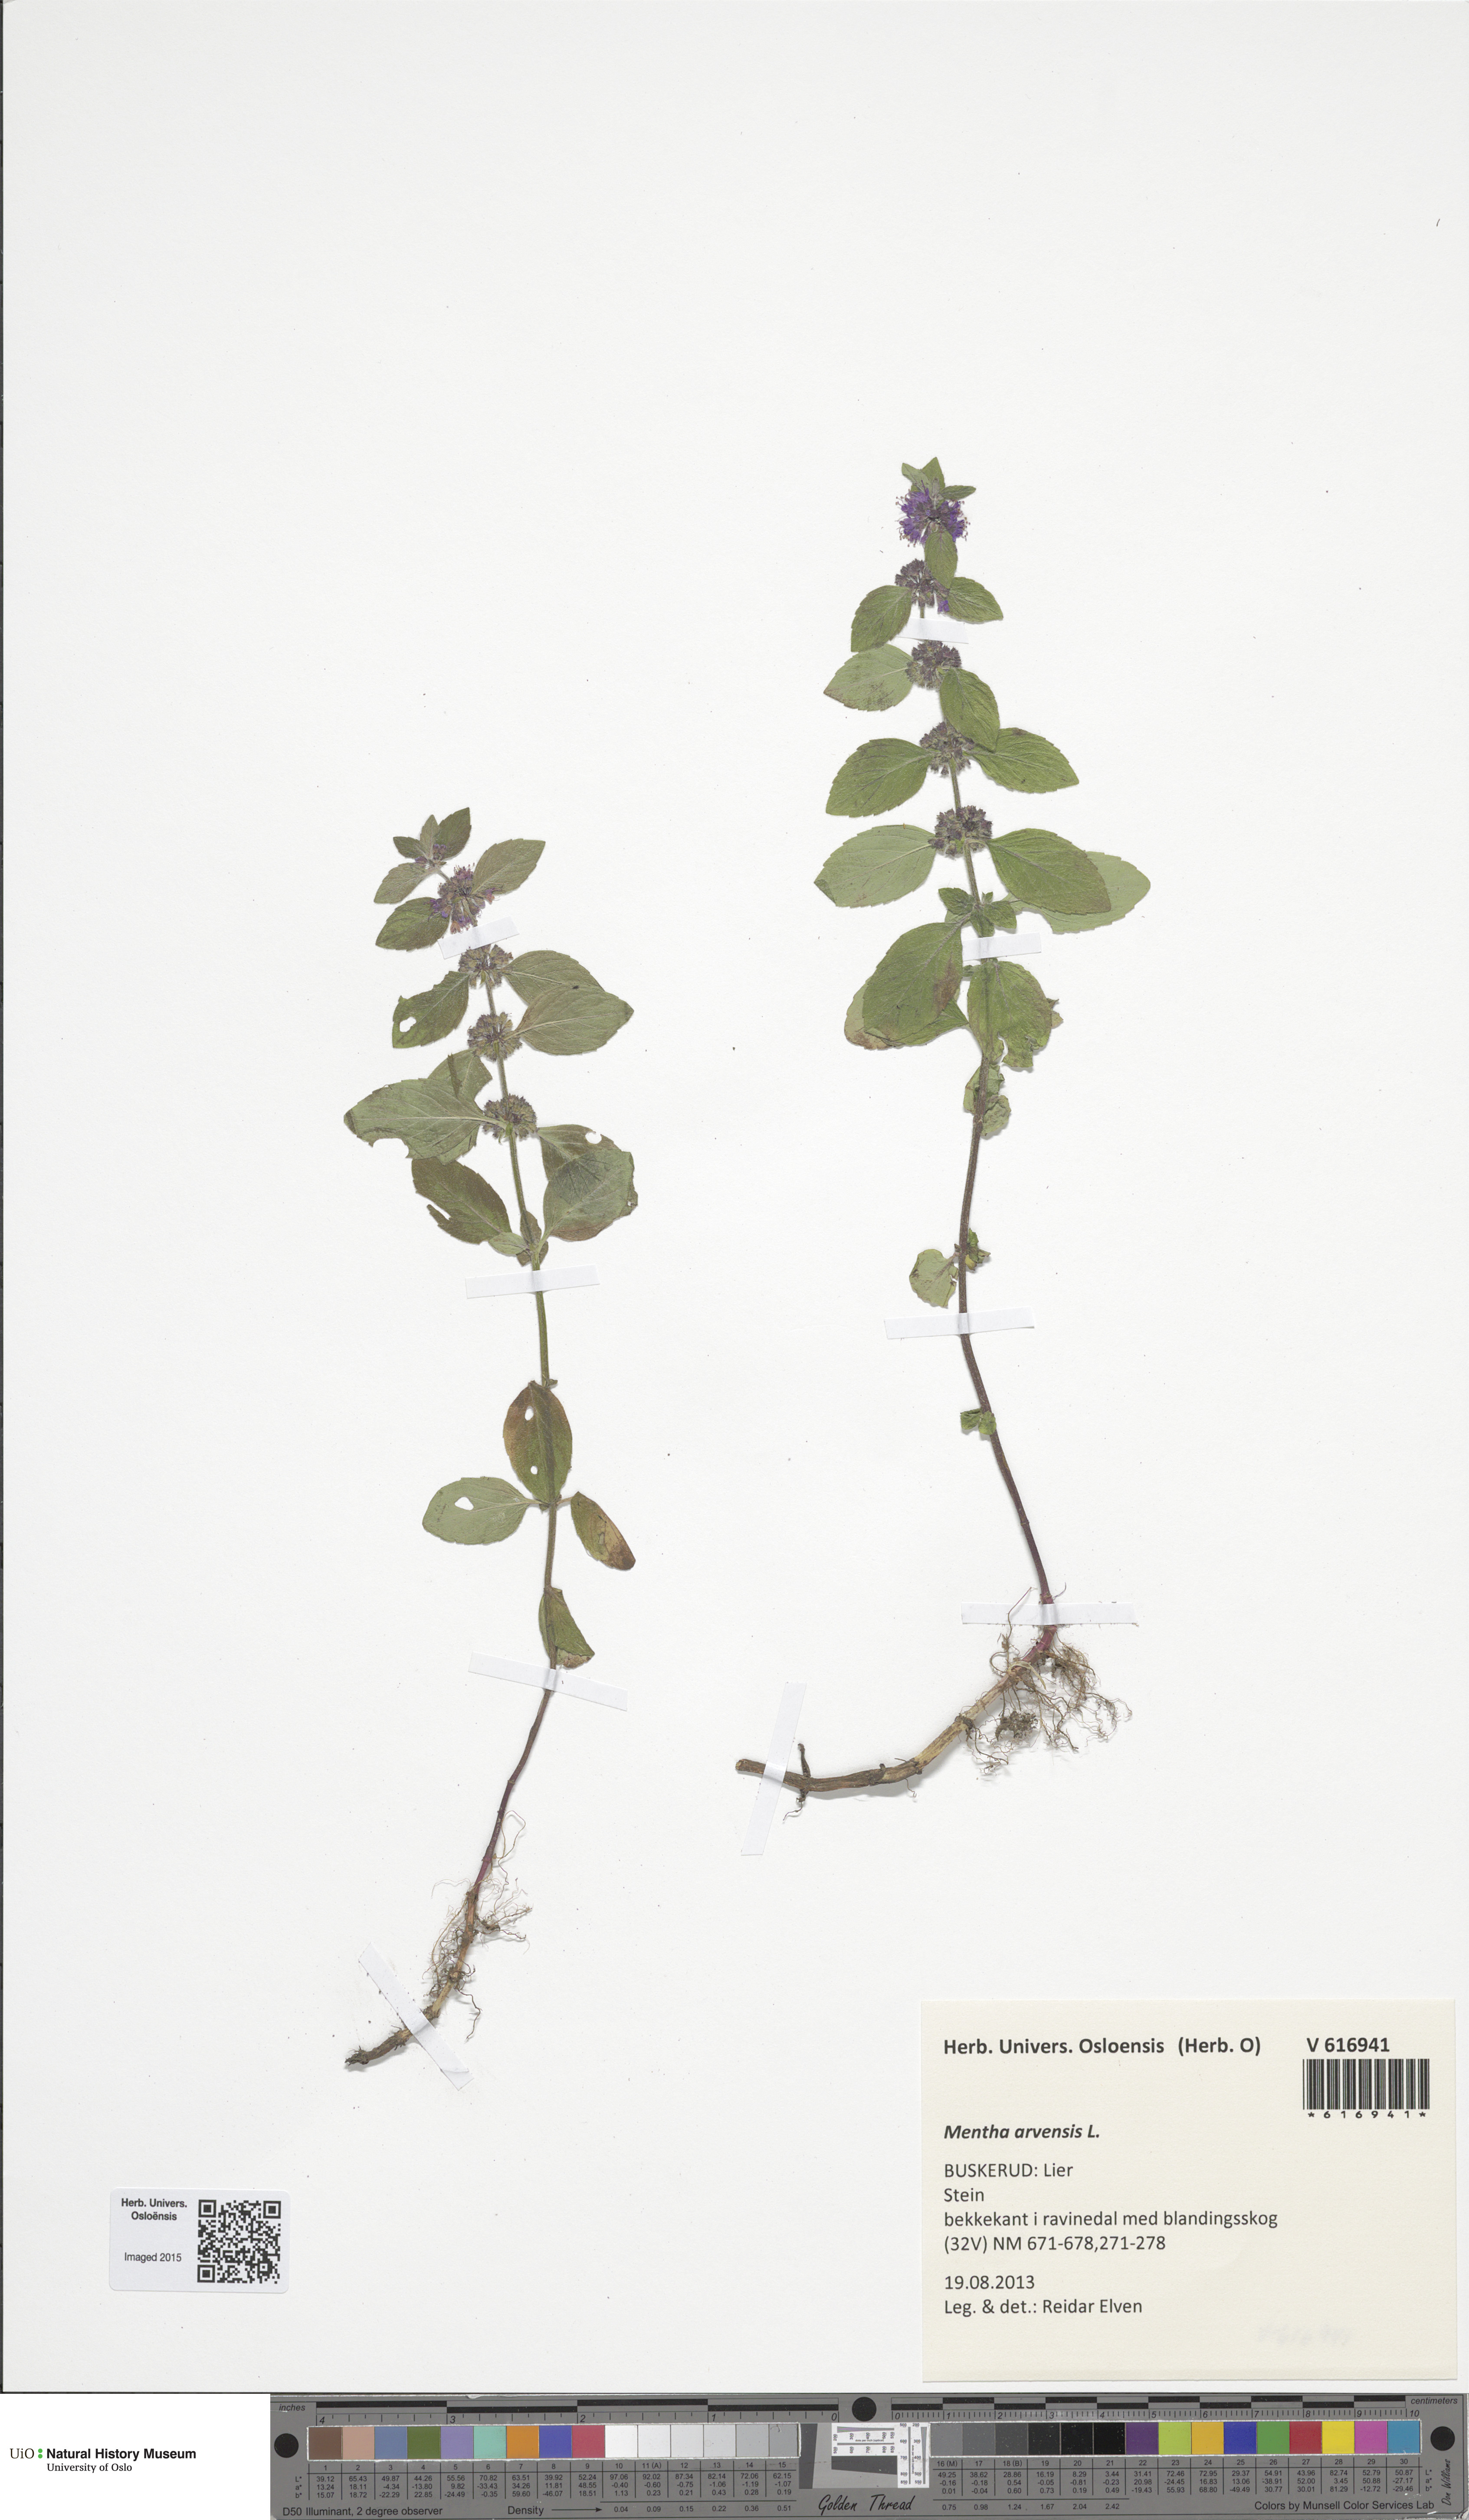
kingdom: Plantae
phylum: Tracheophyta
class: Magnoliopsida
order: Lamiales
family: Lamiaceae
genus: Mentha
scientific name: Mentha arvensis
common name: Corn mint
